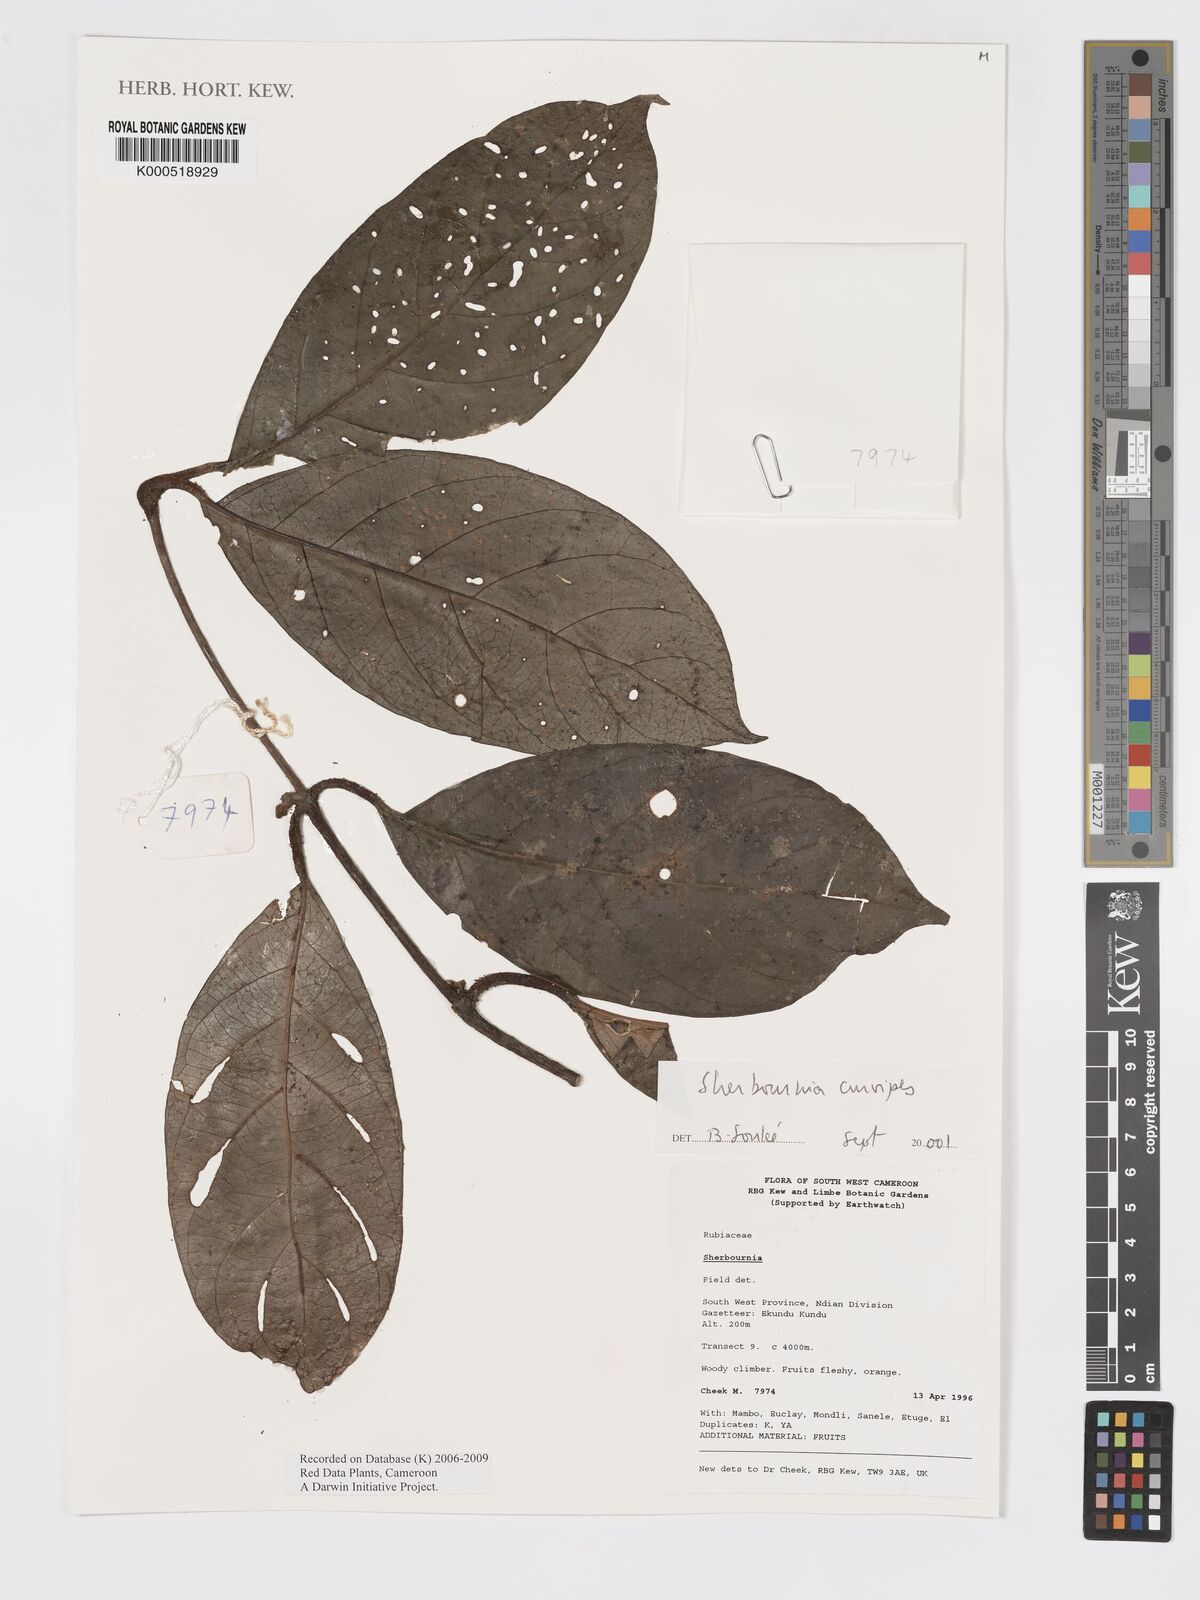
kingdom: Plantae
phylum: Tracheophyta
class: Magnoliopsida
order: Gentianales
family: Rubiaceae
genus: Sherbournia
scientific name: Sherbournia
